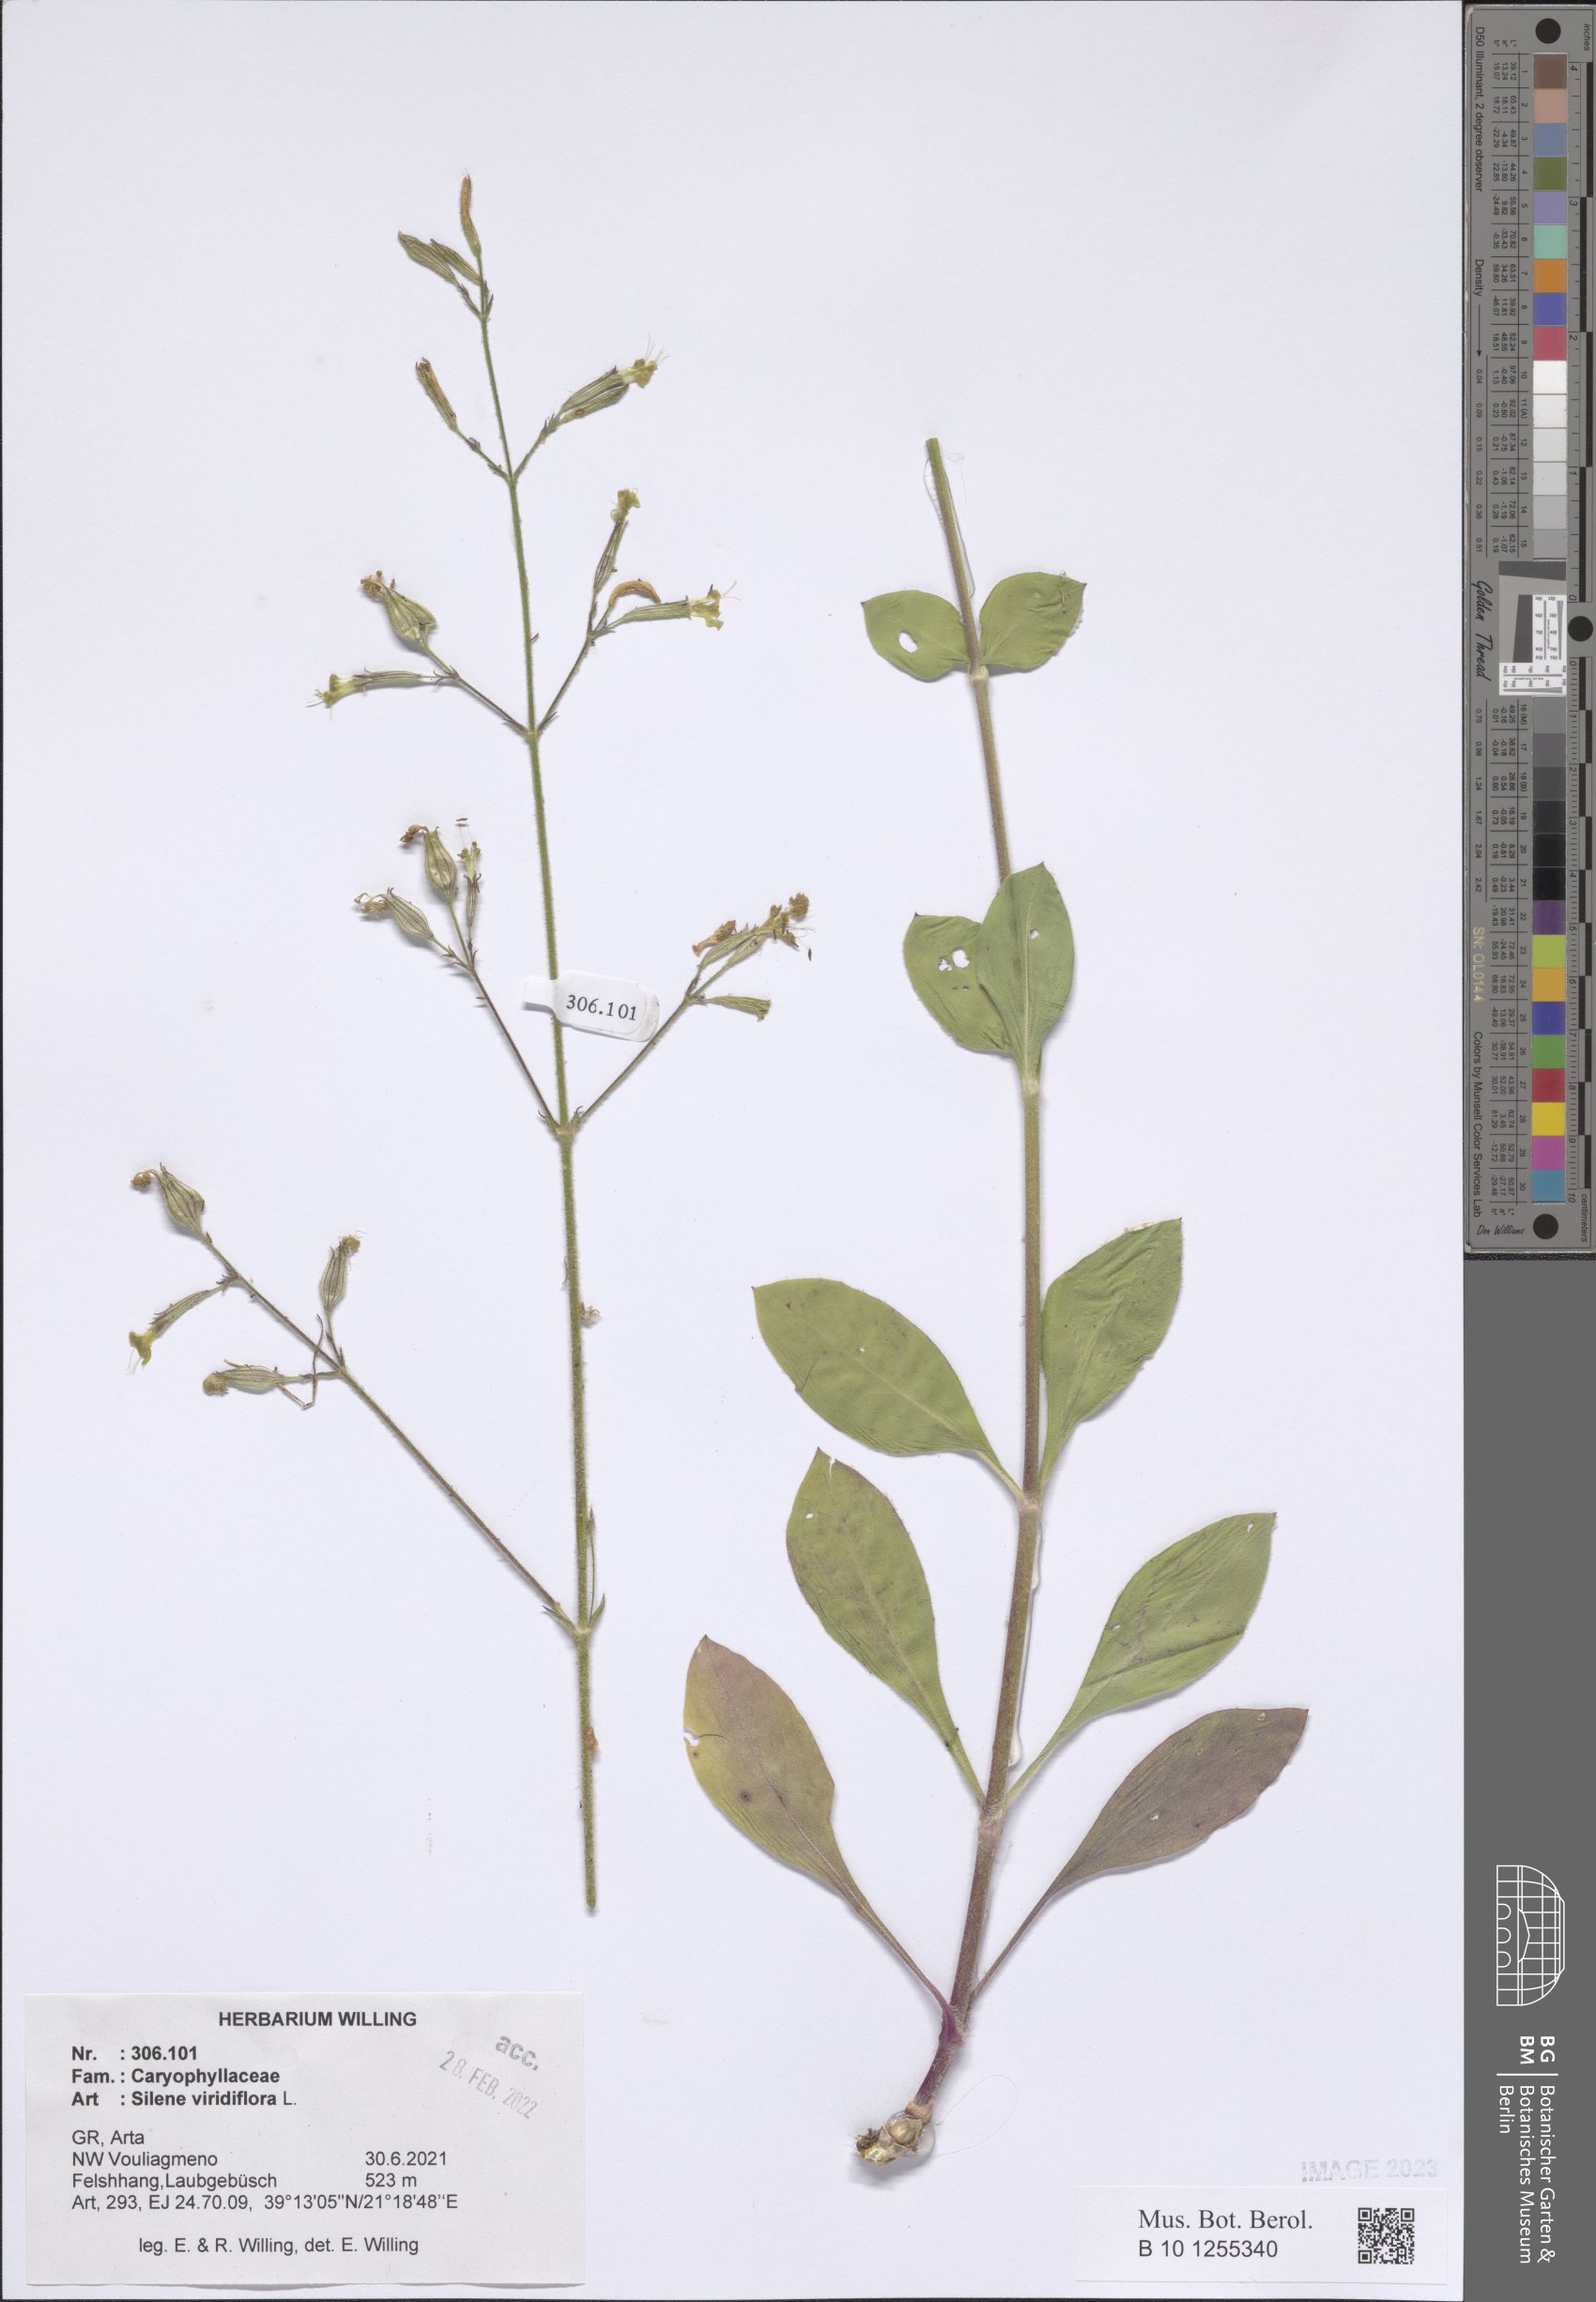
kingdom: Plantae
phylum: Tracheophyta
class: Magnoliopsida
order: Caryophyllales
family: Caryophyllaceae
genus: Silene
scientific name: Silene viridiflora
